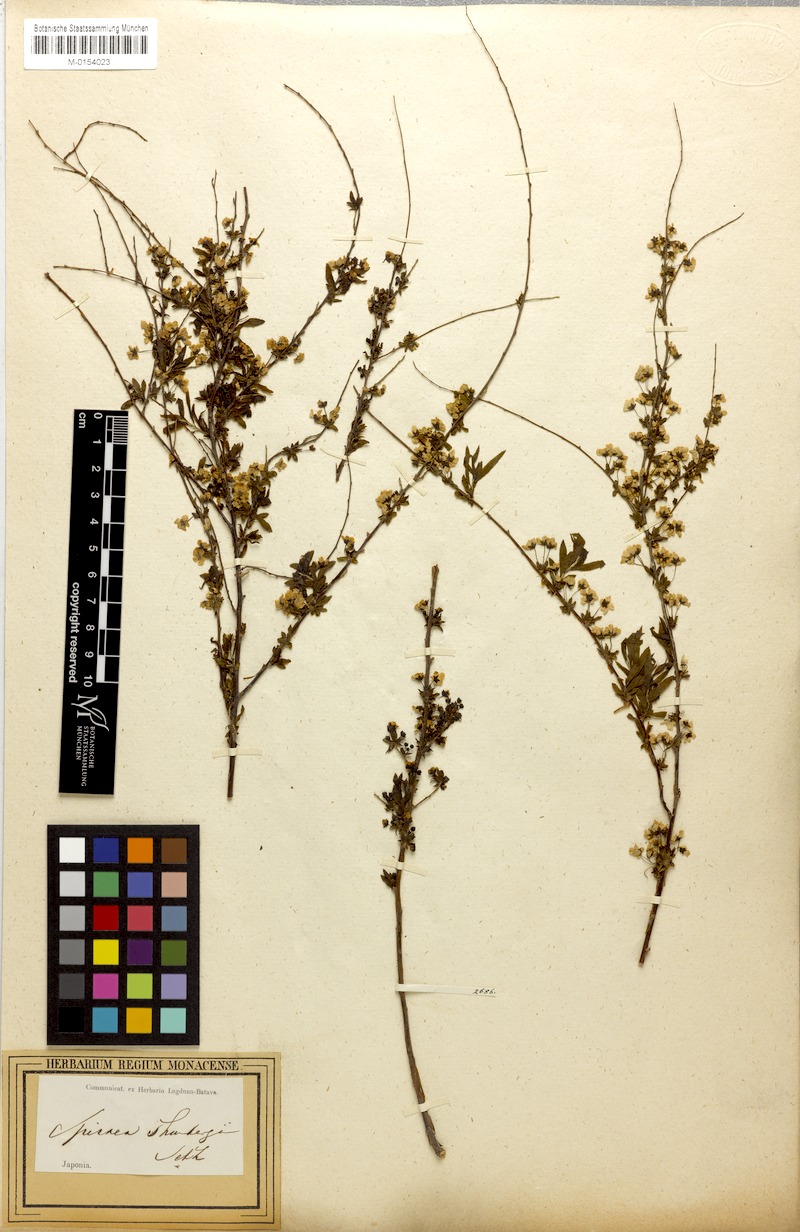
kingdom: Plantae
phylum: Tracheophyta
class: Magnoliopsida
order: Rosales
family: Rosaceae
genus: Spiraea
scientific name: Spiraea thunbergii
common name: Thunberg's meadowsweet
